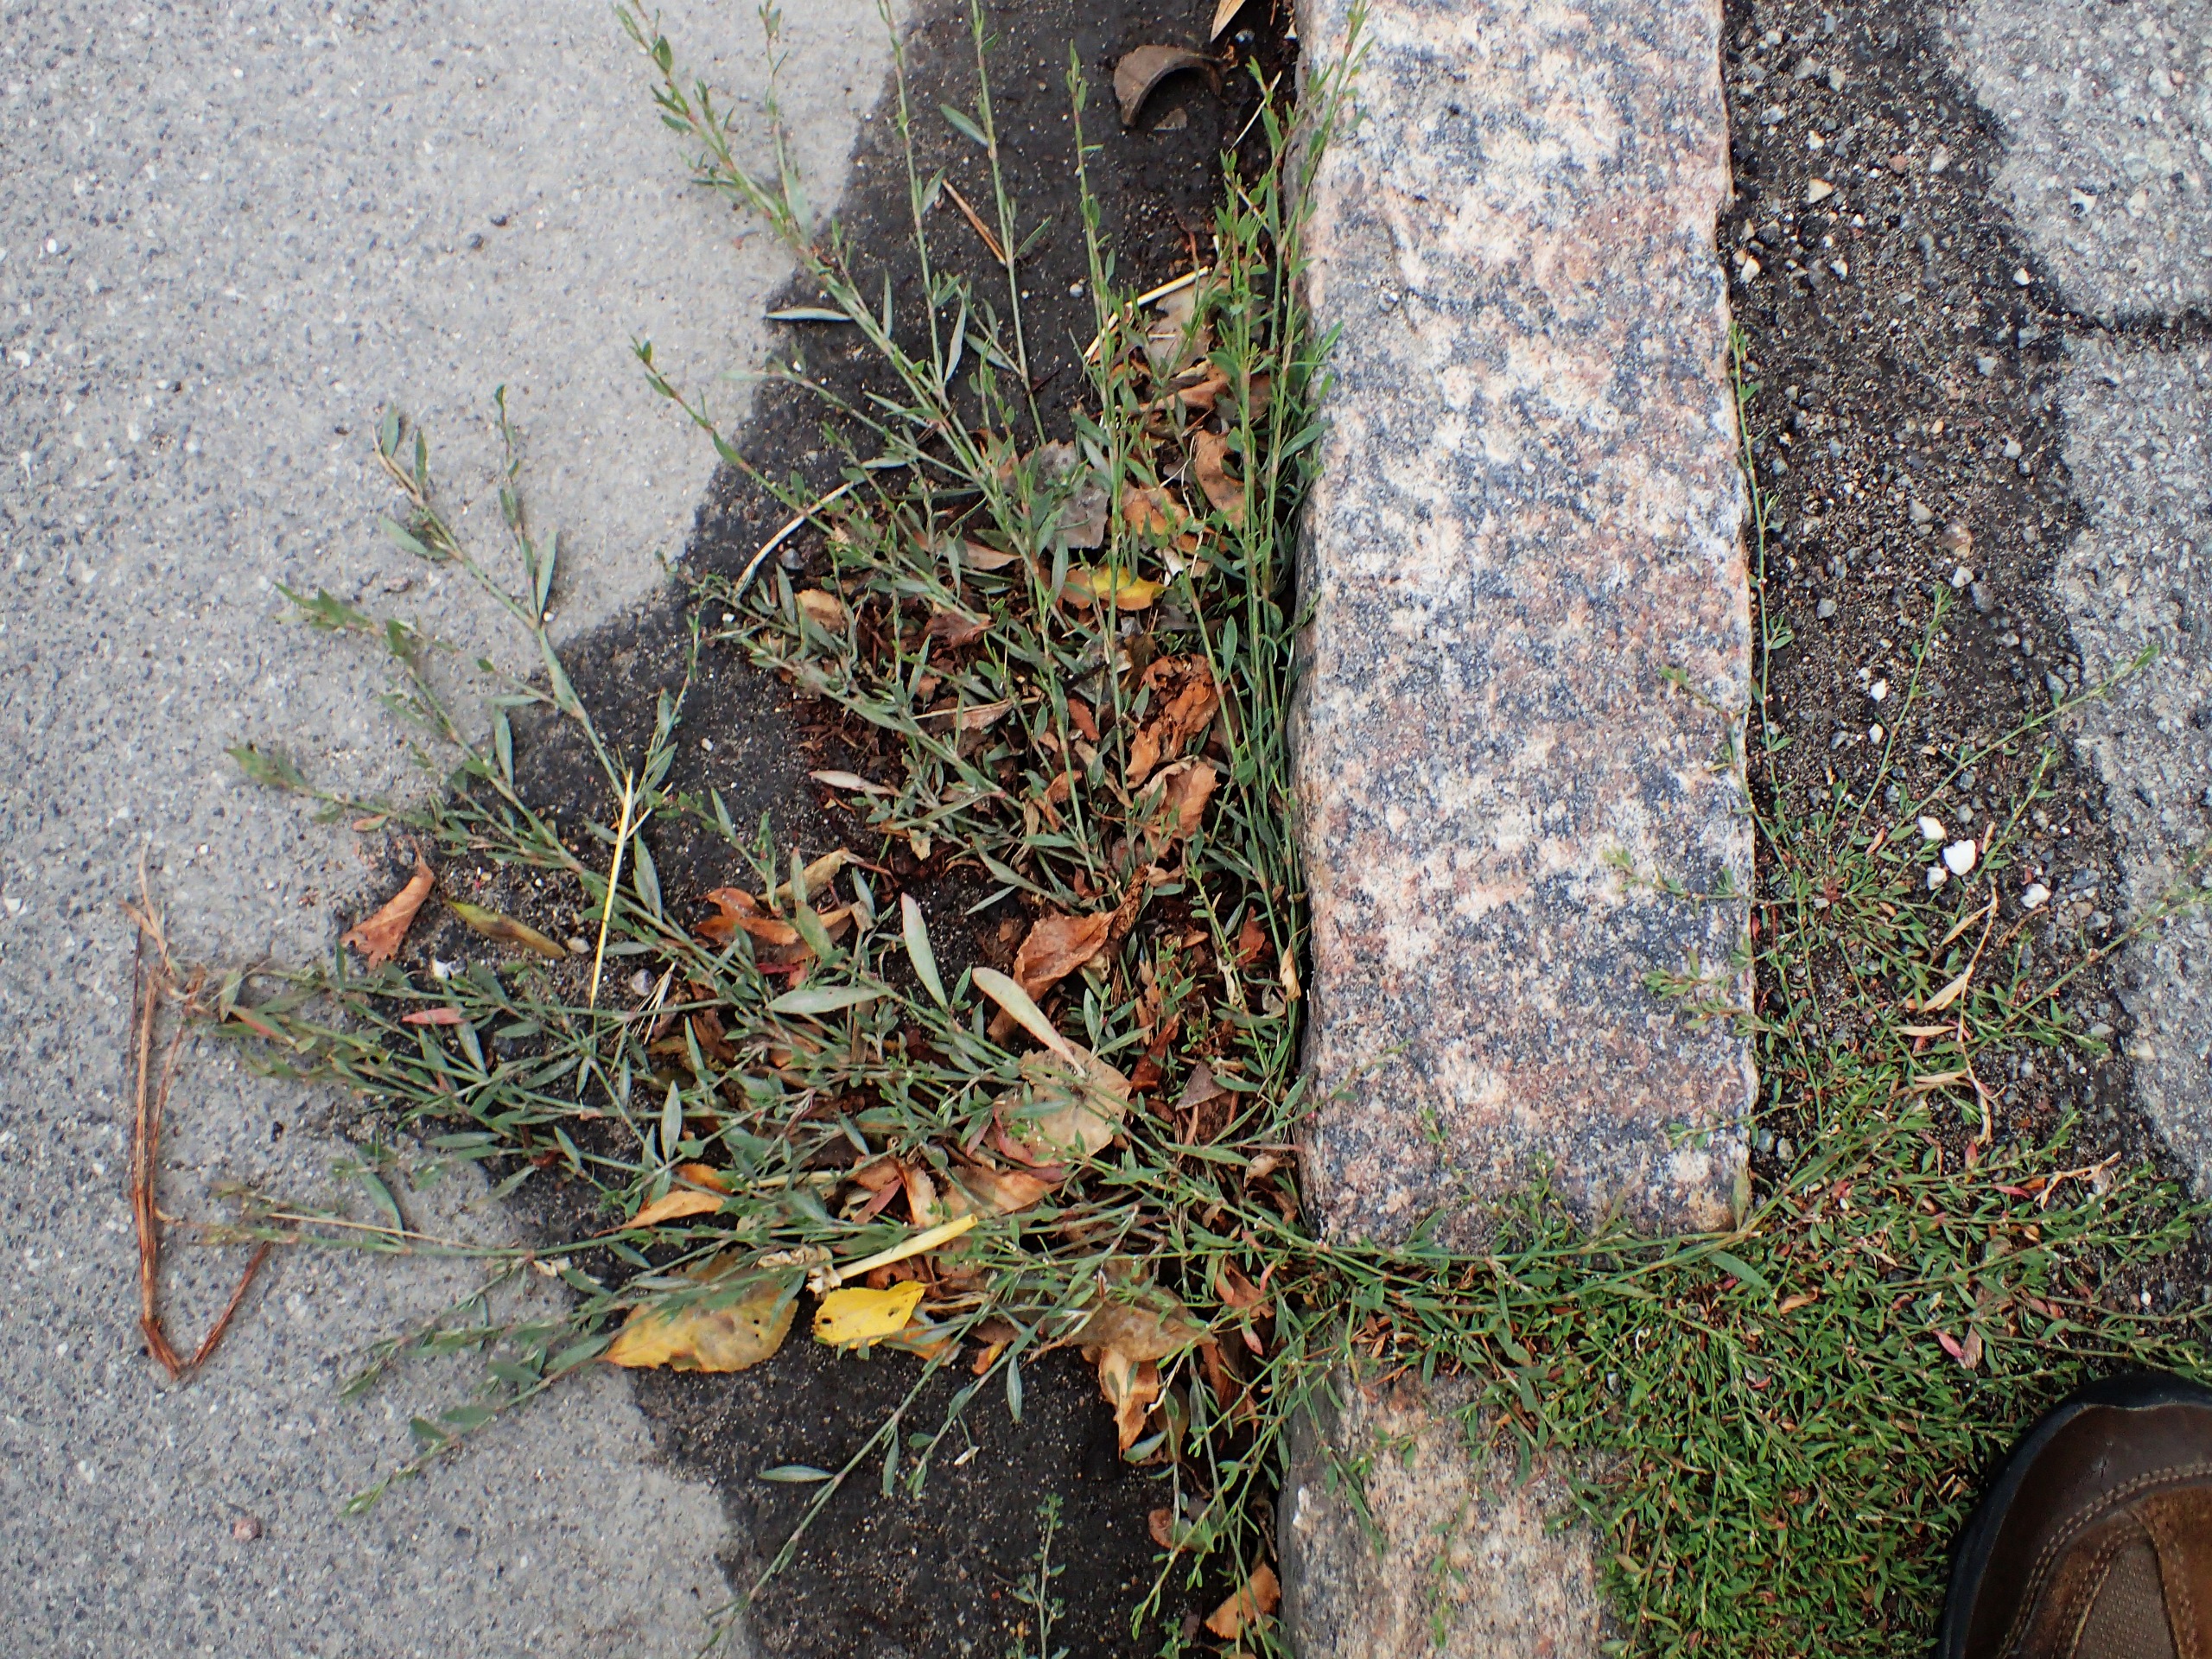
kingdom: Plantae
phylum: Tracheophyta
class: Magnoliopsida
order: Caryophyllales
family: Polygonaceae
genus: Polygonum
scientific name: Polygonum aviculare
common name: Spidsbladet vej-pileurt
